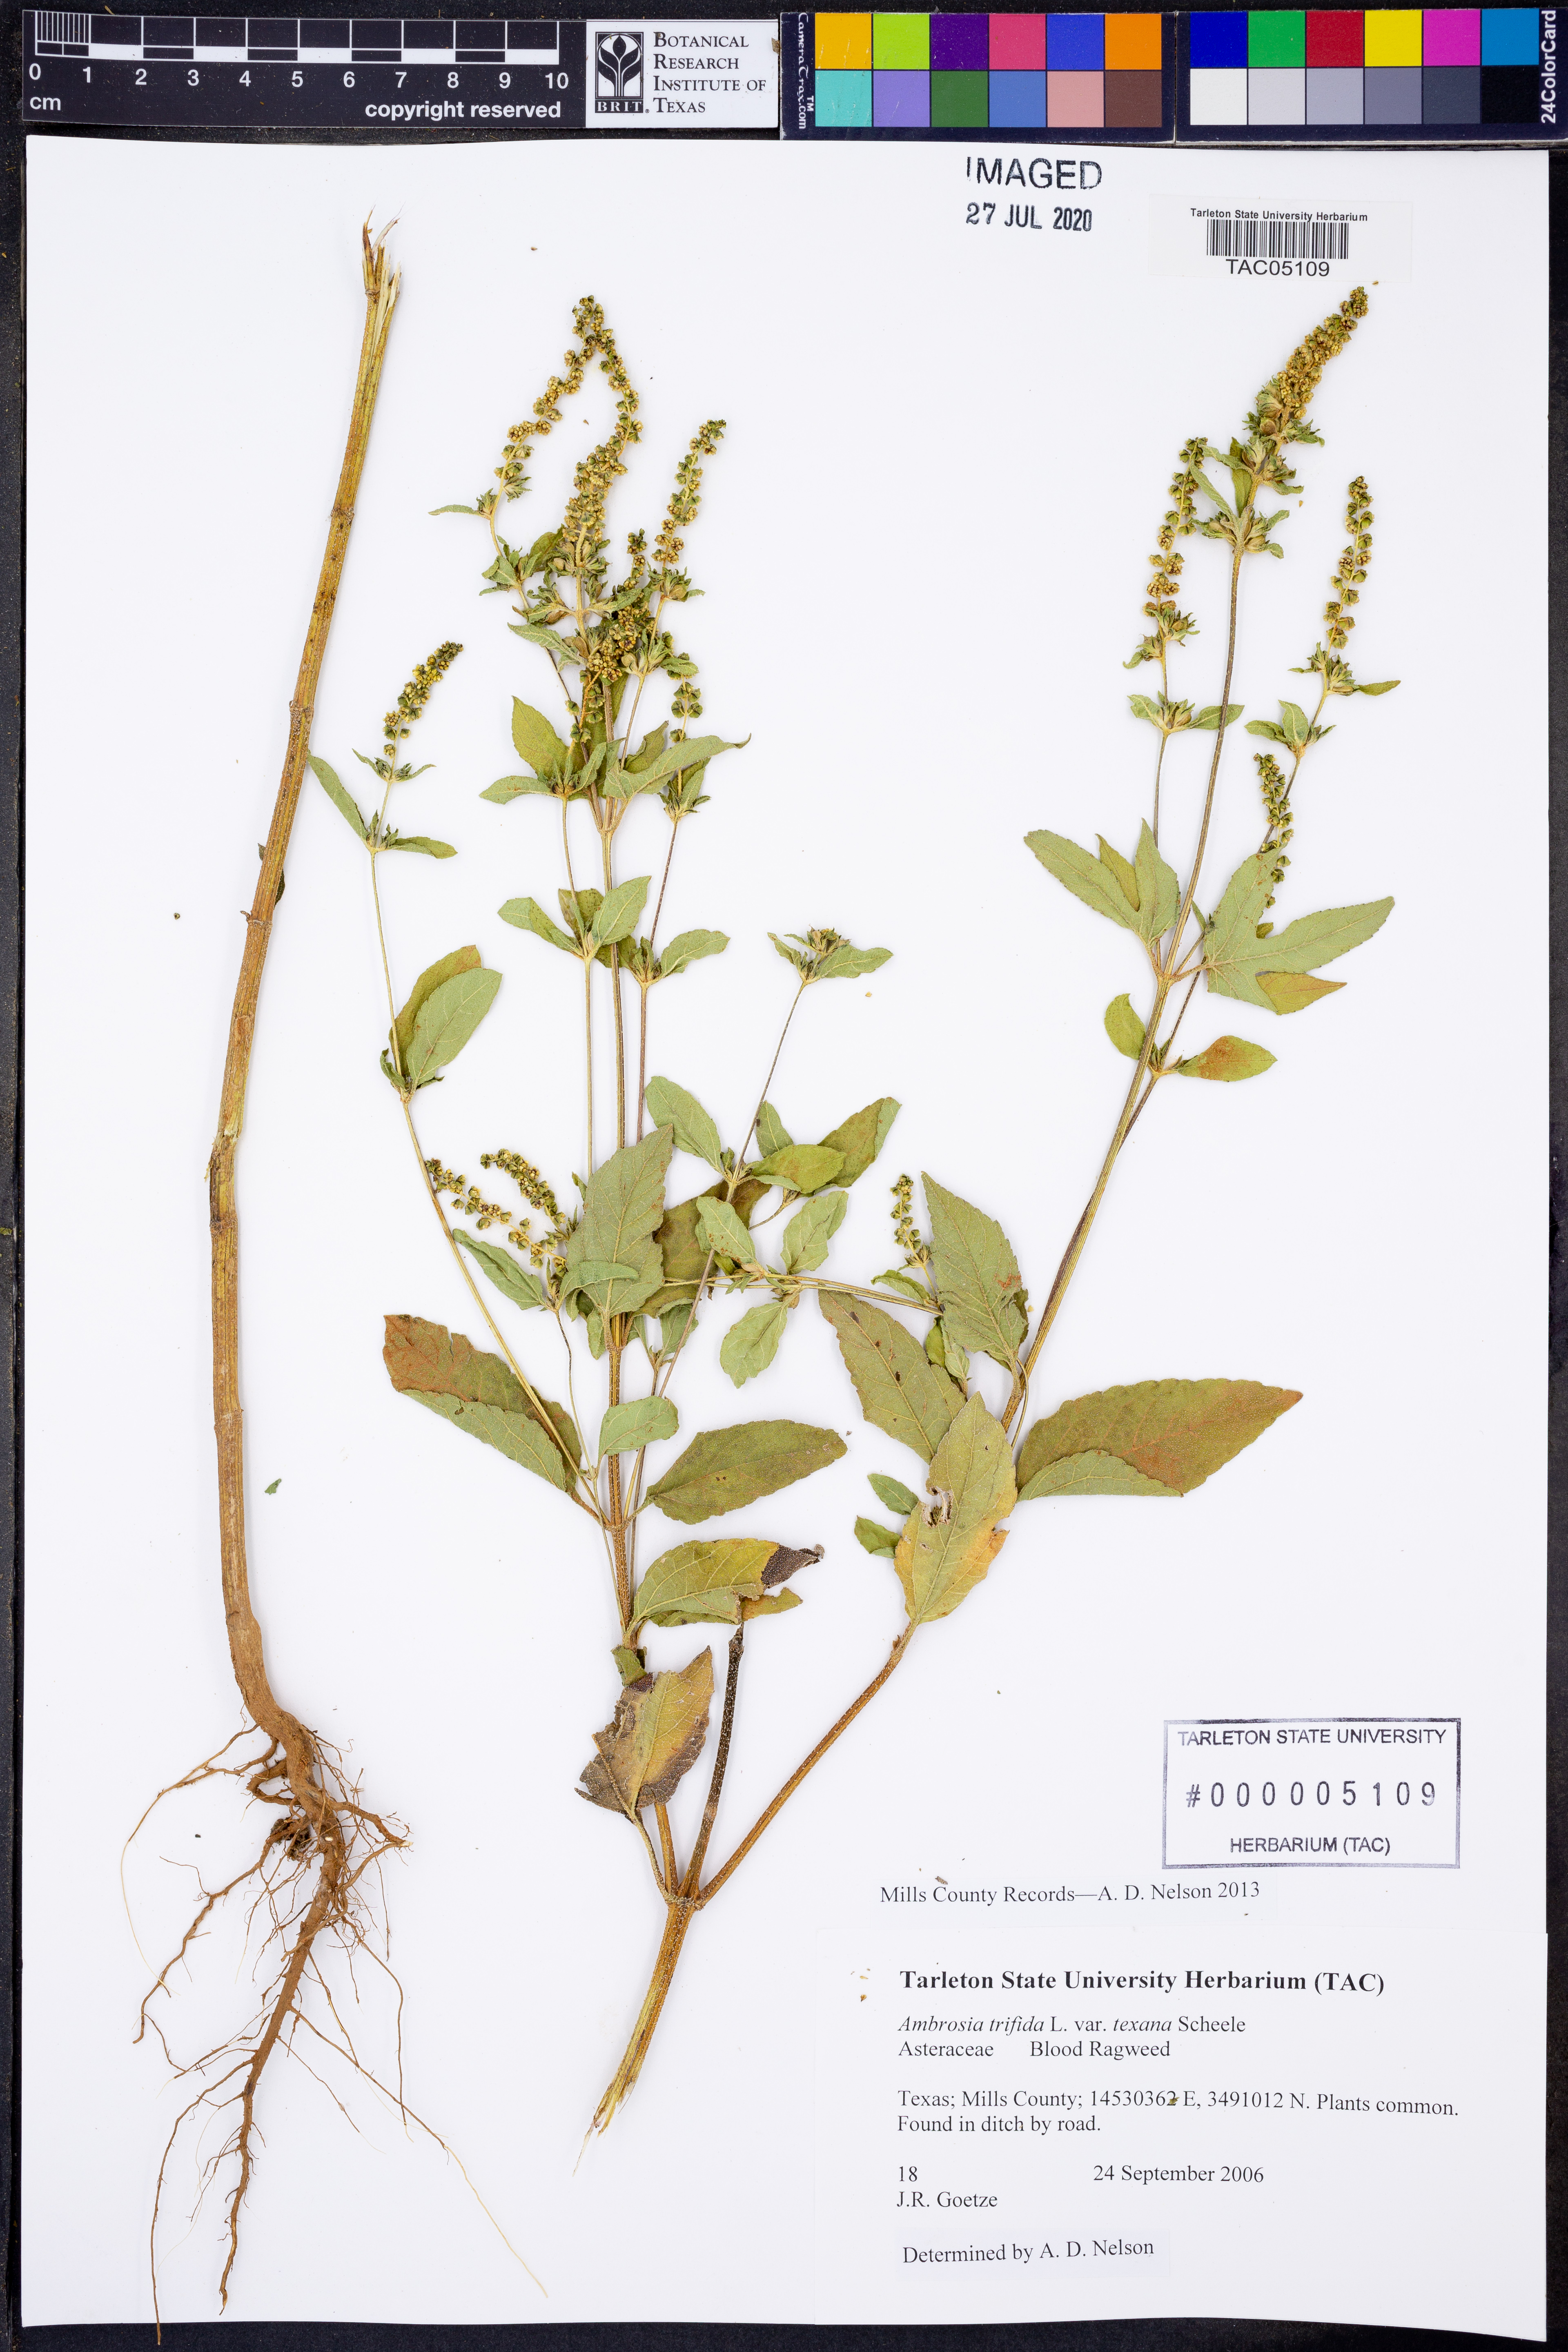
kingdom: Plantae
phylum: Tracheophyta
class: Magnoliopsida
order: Asterales
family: Asteraceae
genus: Ambrosia
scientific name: Ambrosia trifida
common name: Giant ragweed
